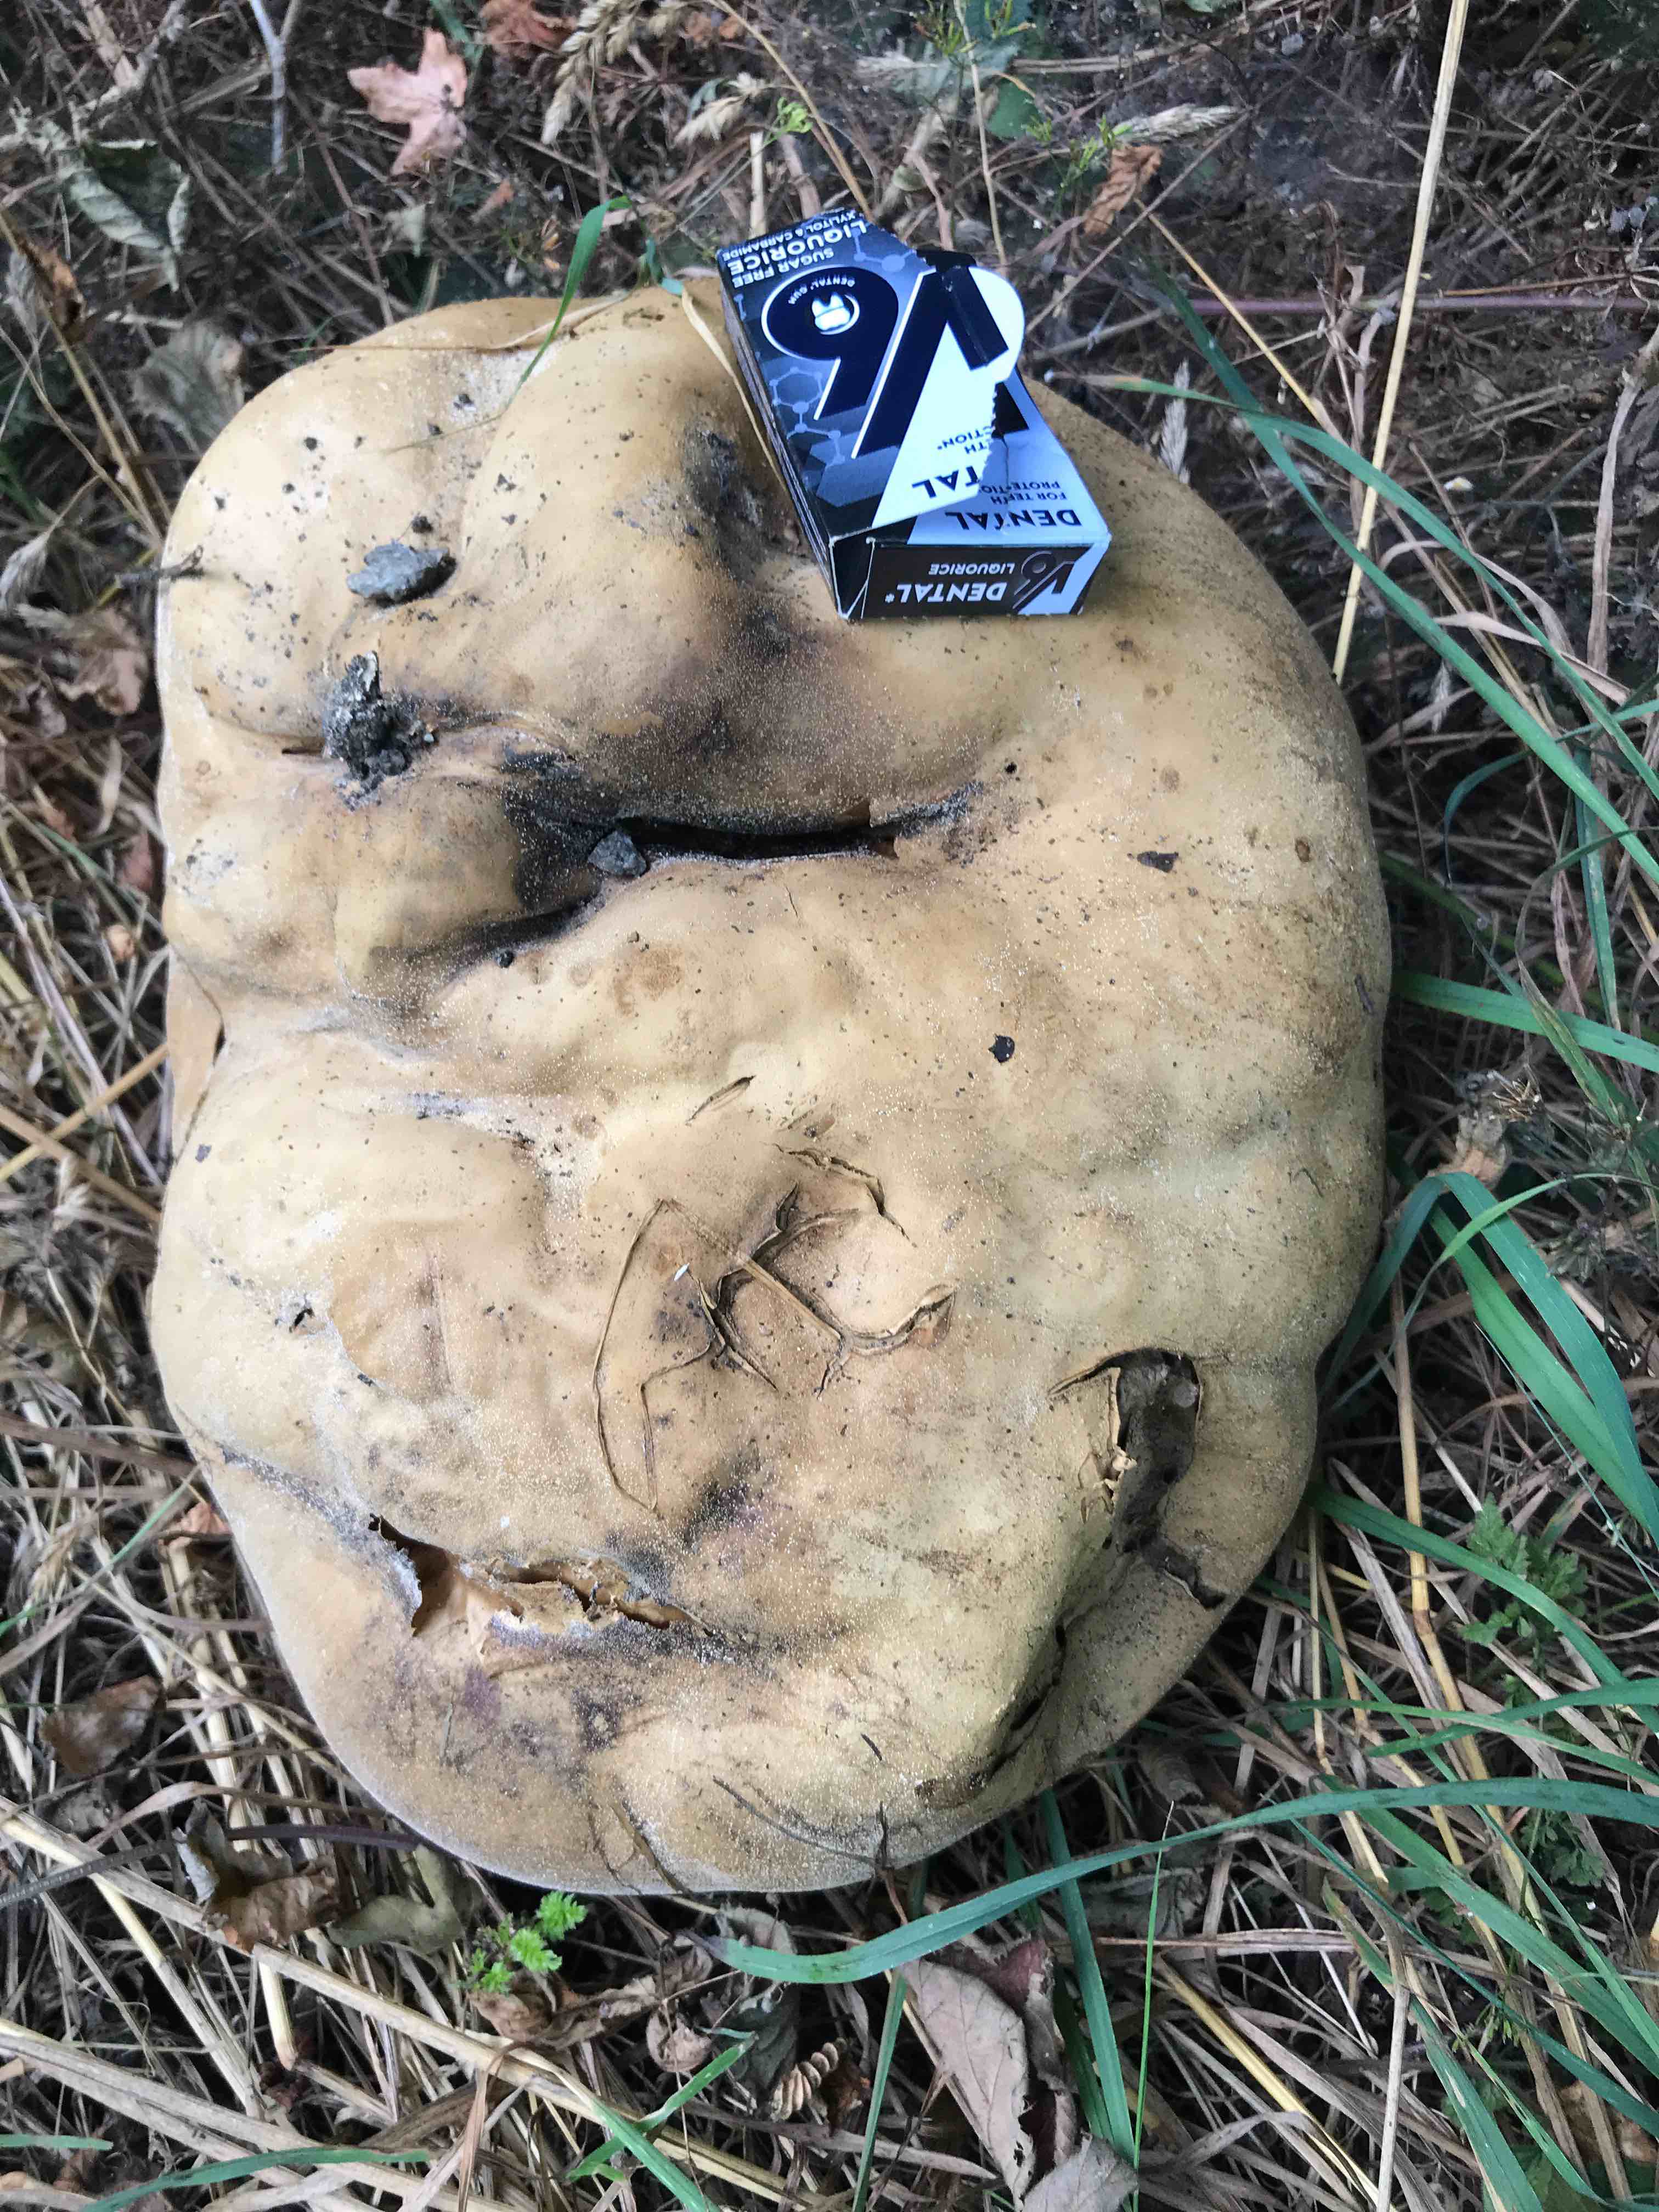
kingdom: Fungi
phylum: Basidiomycota
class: Agaricomycetes
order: Agaricales
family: Lycoperdaceae
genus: Calvatia
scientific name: Calvatia gigantea
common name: kæmpestøvbold
